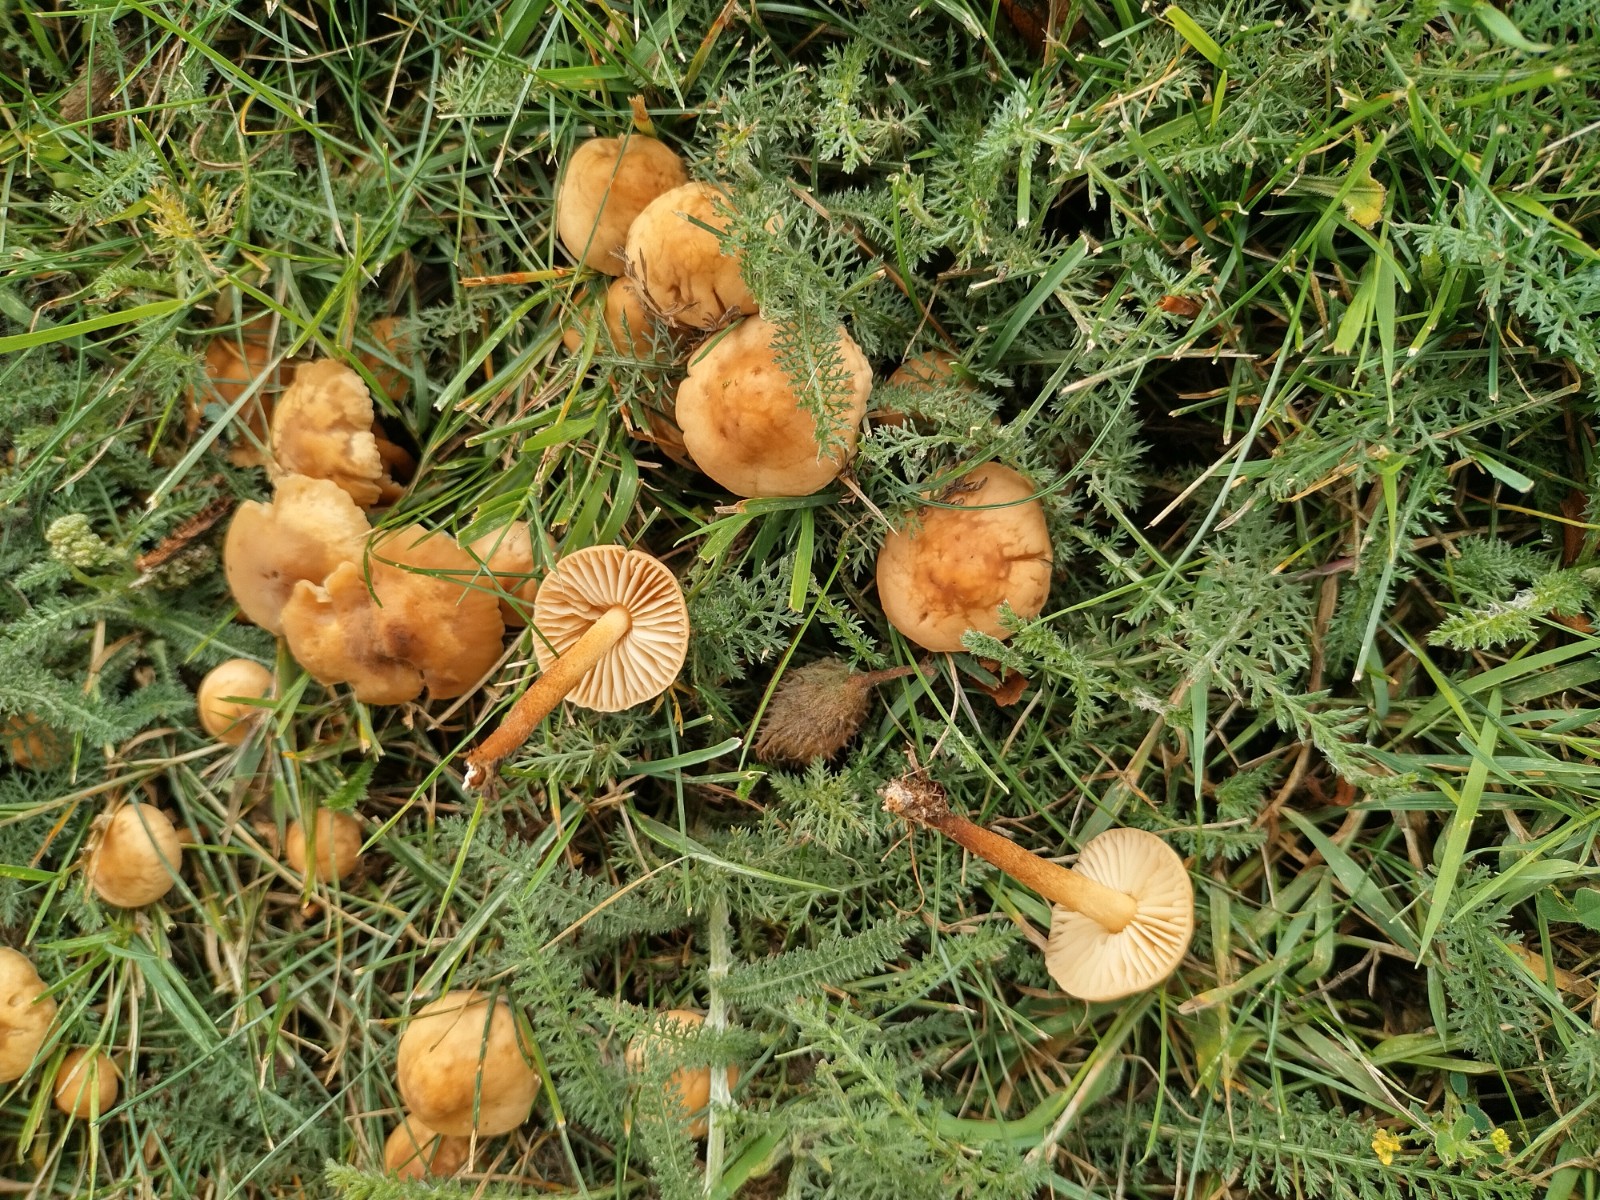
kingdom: Fungi
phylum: Basidiomycota
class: Agaricomycetes
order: Agaricales
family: Marasmiaceae
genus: Marasmius
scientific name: Marasmius oreades
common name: elledans-bruskhat
